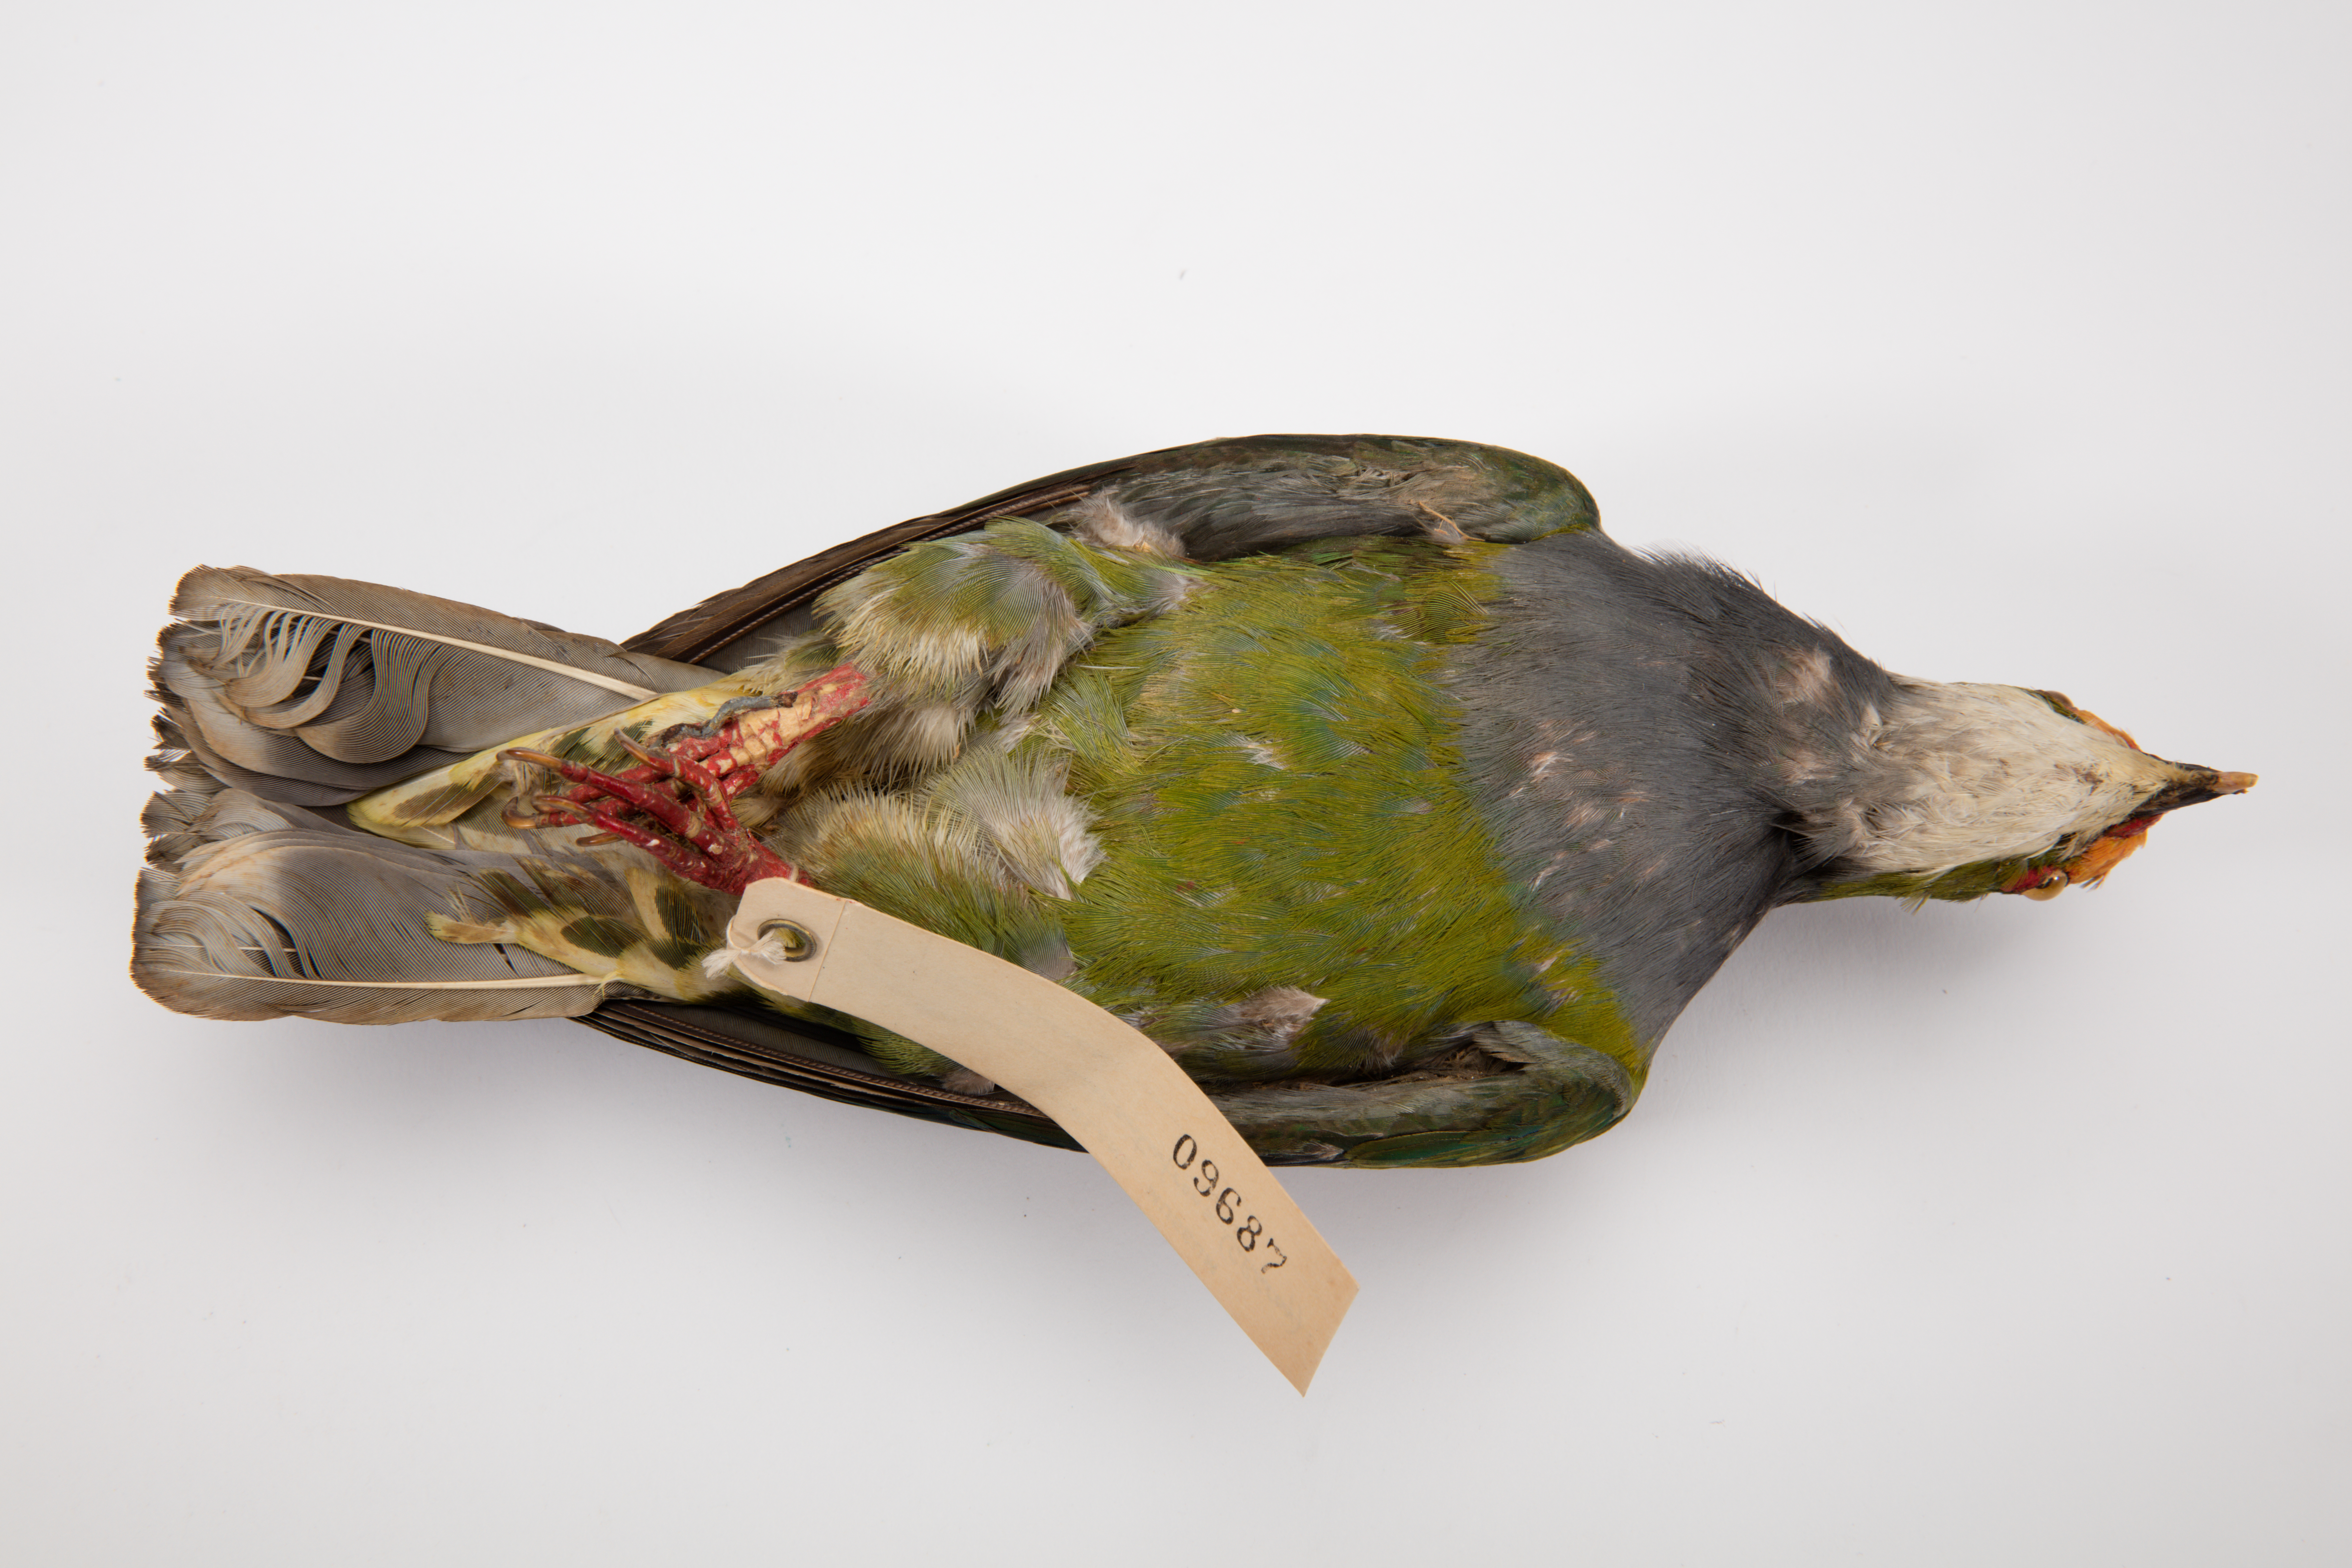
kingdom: Animalia
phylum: Chordata
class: Aves
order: Columbiformes
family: Columbidae
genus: Ptilinopus
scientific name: Ptilinopus aurantiifrons
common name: Orange-fronted fruit dove
